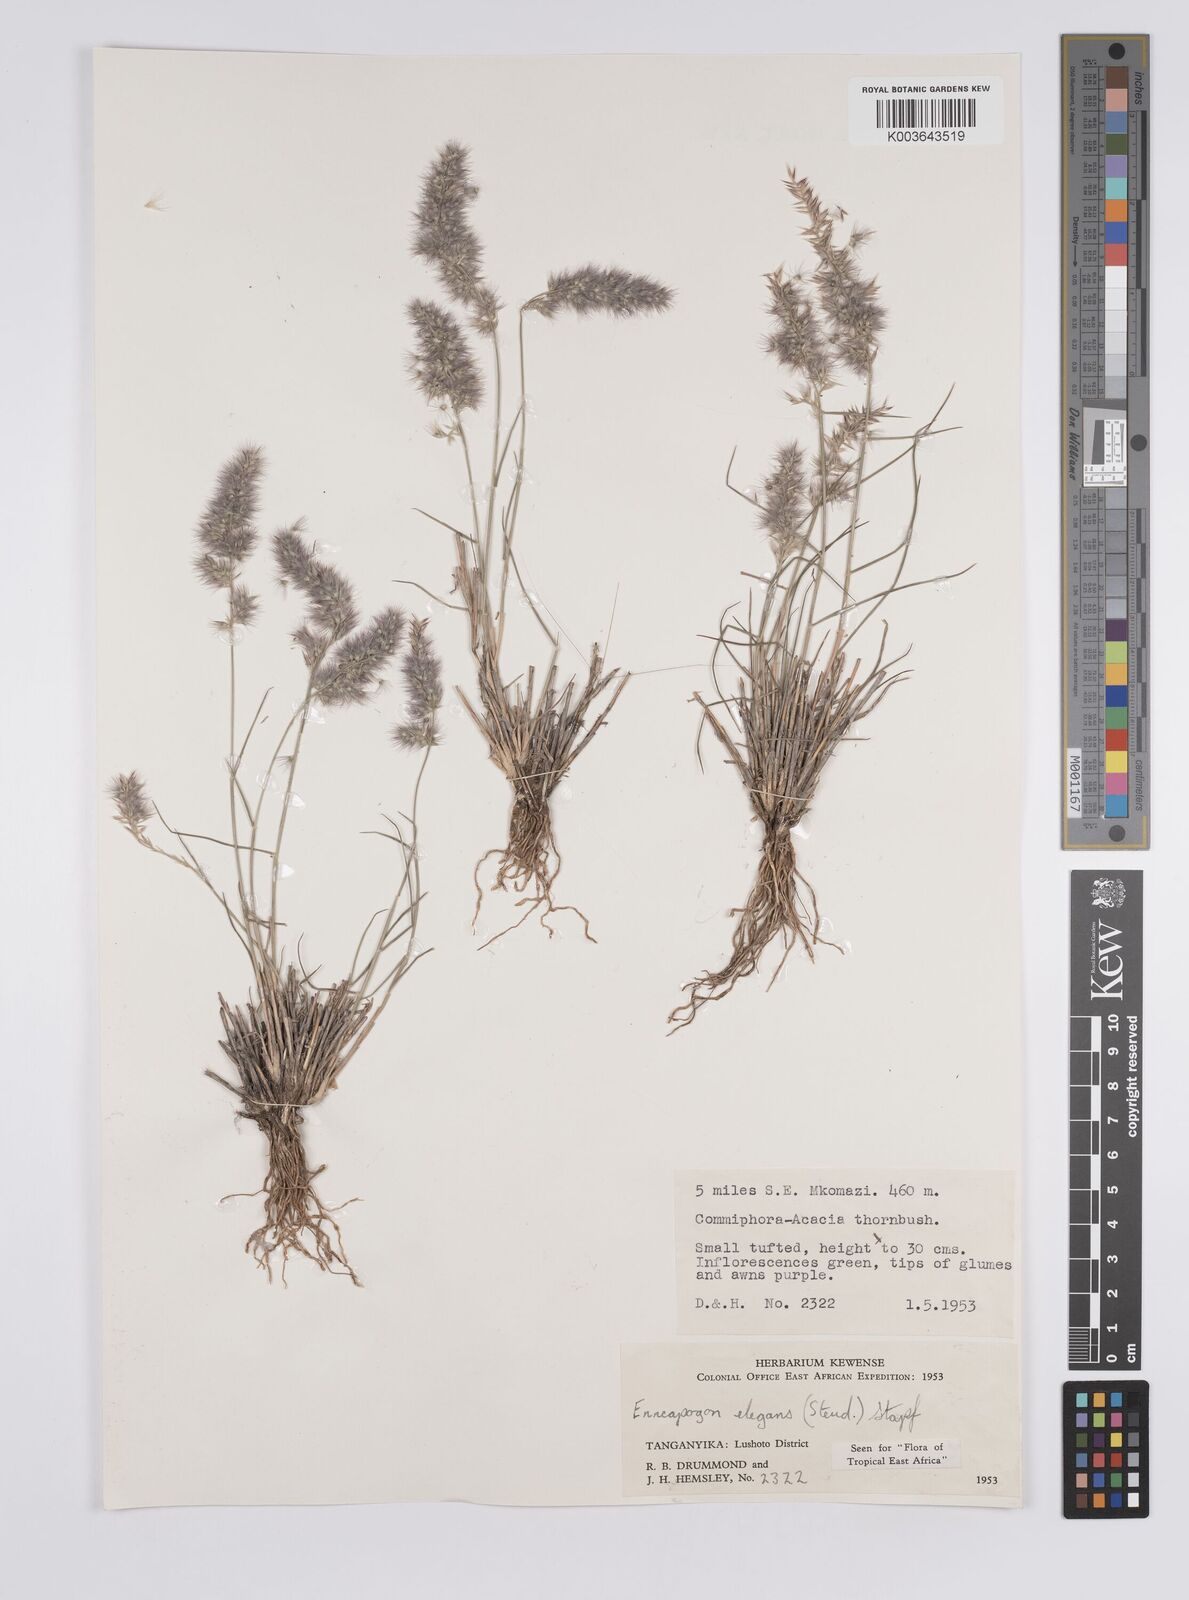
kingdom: Plantae
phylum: Tracheophyta
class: Liliopsida
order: Poales
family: Poaceae
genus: Enneapogon
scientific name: Enneapogon persicus
